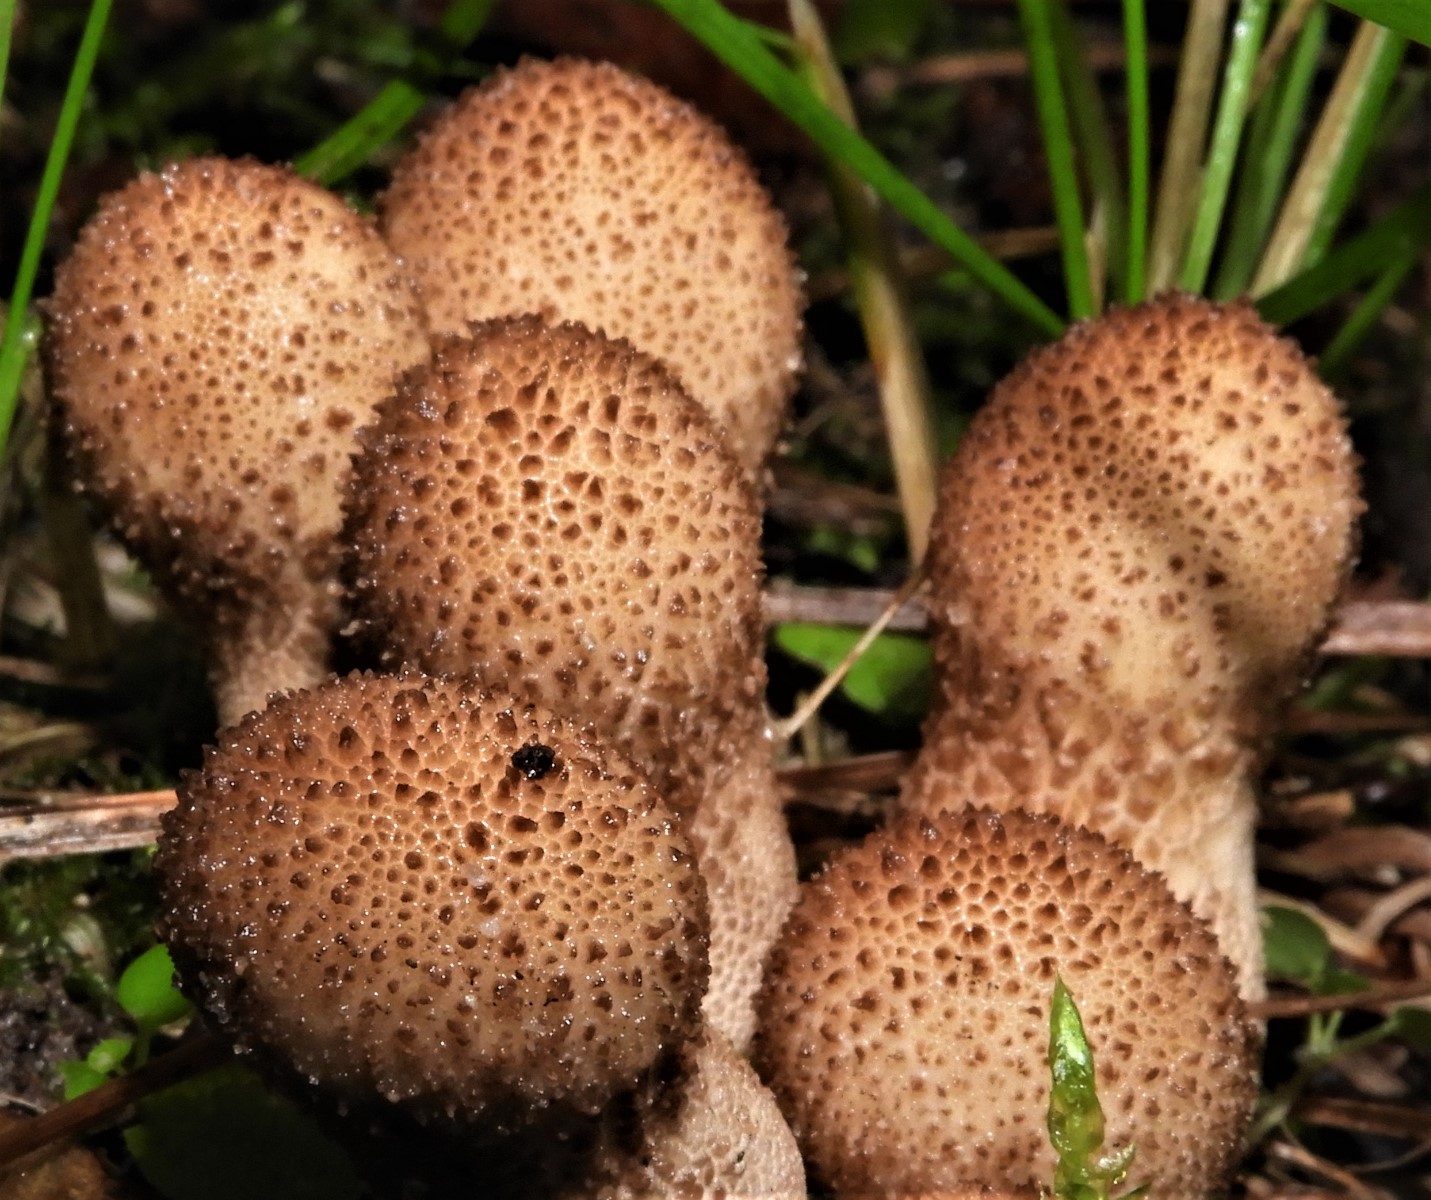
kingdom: Fungi
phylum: Basidiomycota
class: Agaricomycetes
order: Agaricales
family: Lycoperdaceae
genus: Apioperdon
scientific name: Apioperdon pyriforme
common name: pære-støvbold
